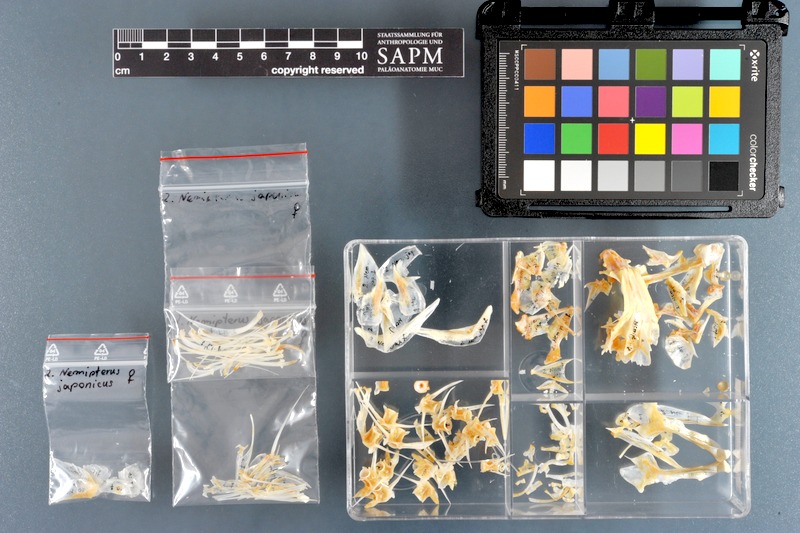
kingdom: Animalia
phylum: Chordata
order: Perciformes
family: Nemipteridae
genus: Nemipterus
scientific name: Nemipterus japonicus
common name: Japanese threadfin bream
